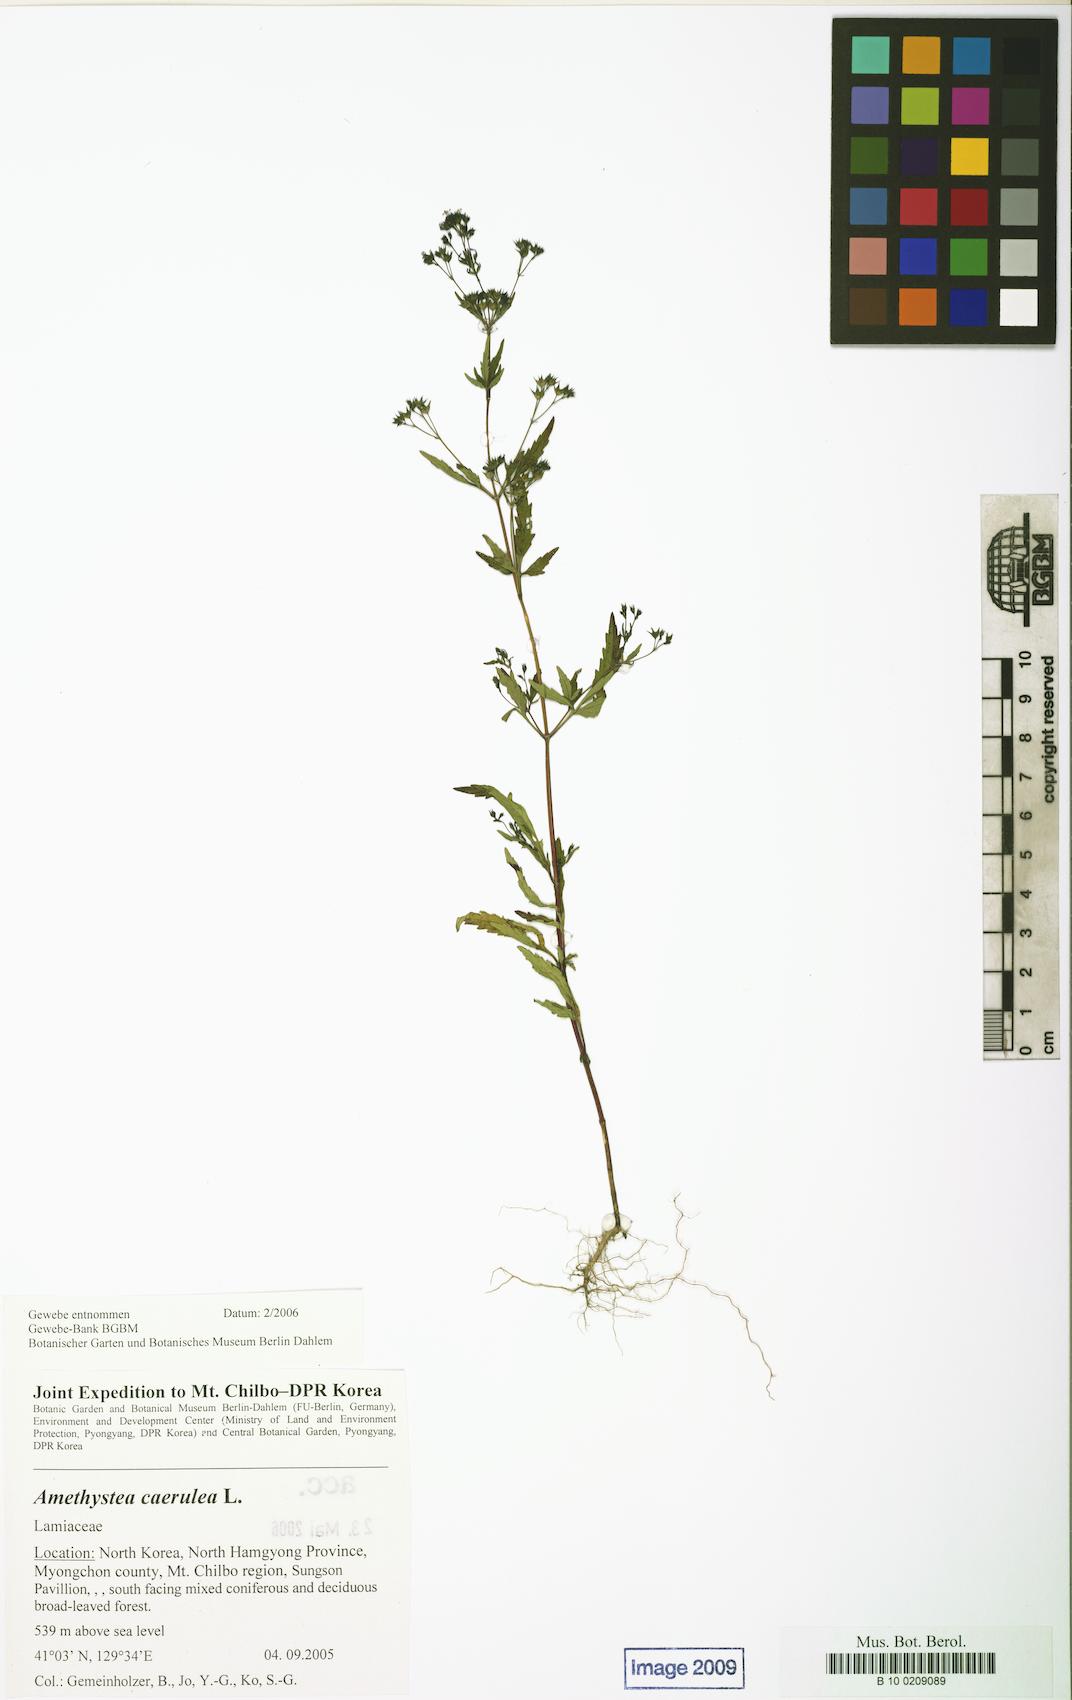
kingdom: Plantae
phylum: Tracheophyta
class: Magnoliopsida
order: Lamiales
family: Lamiaceae
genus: Amethystea
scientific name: Amethystea caerulea
